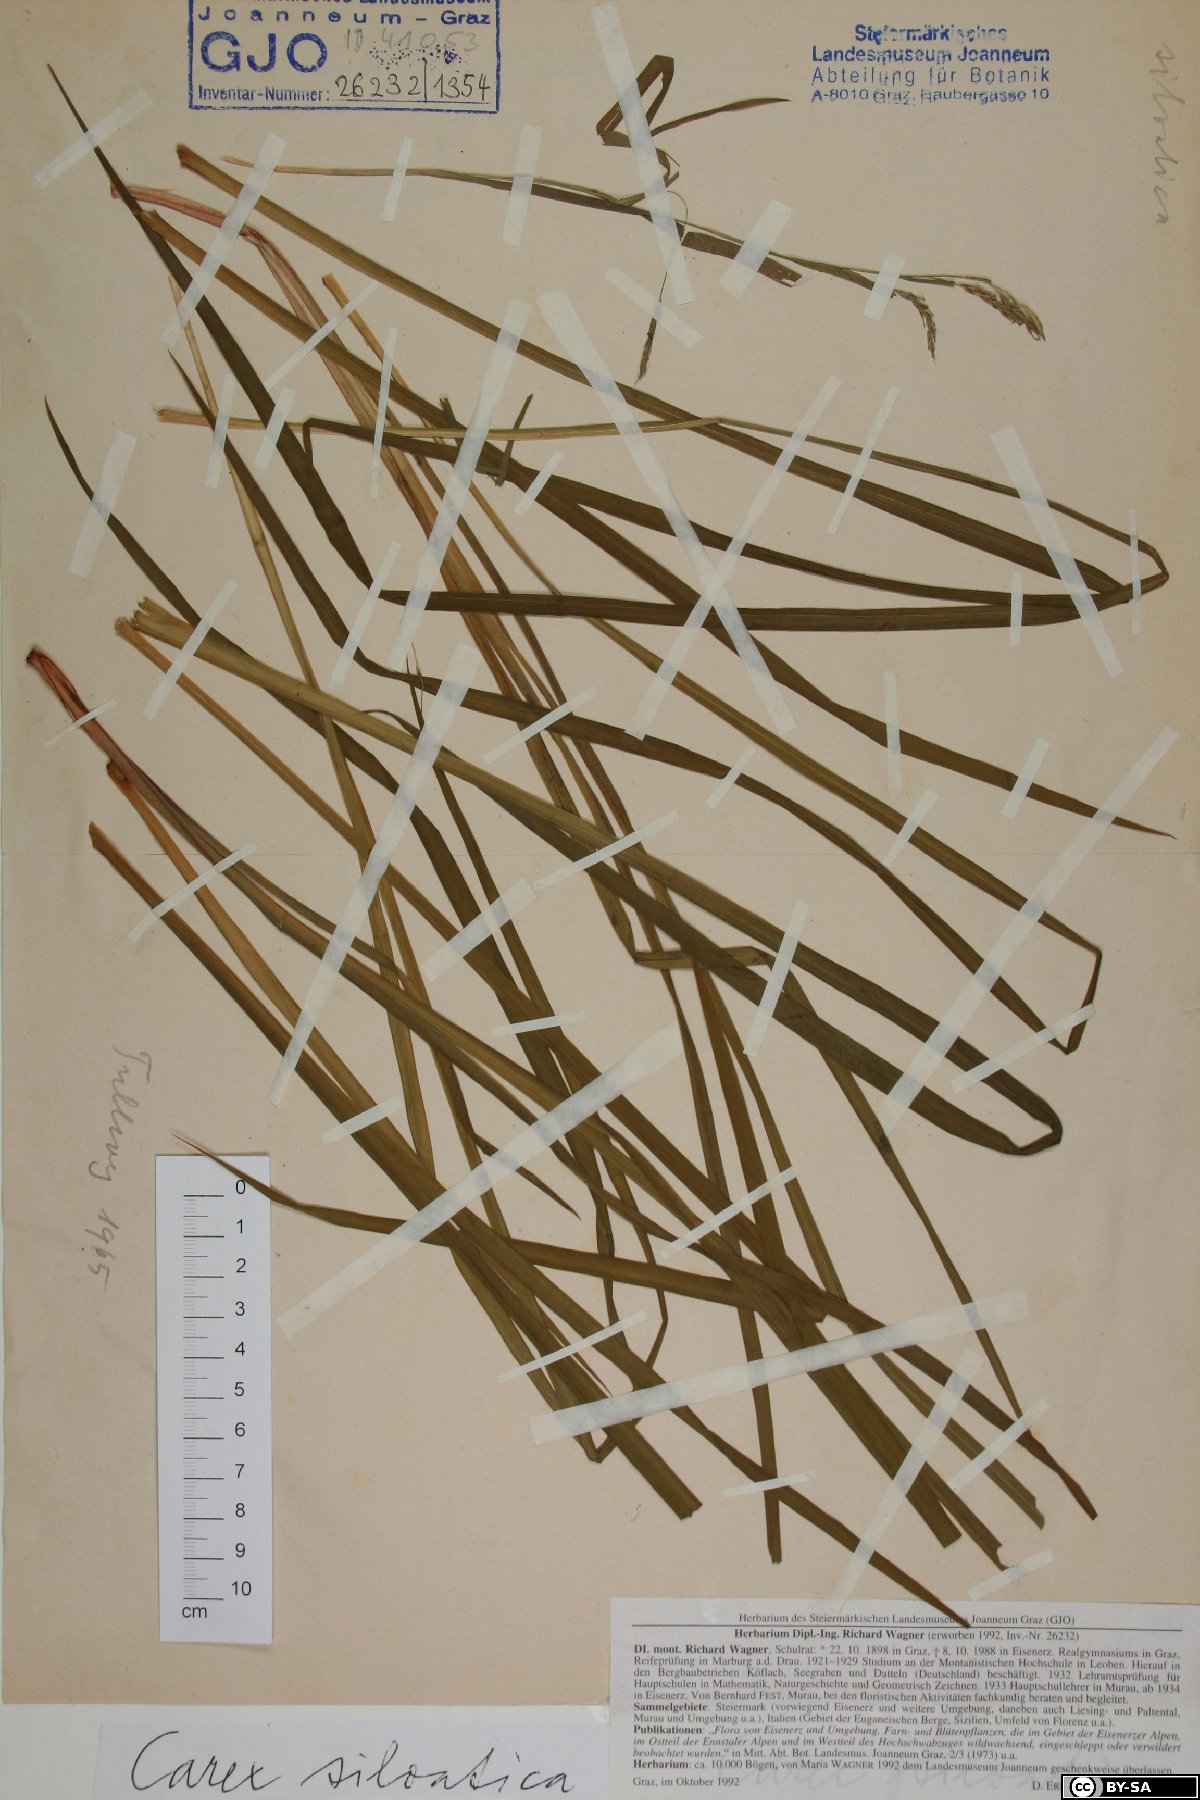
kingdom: Plantae
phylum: Tracheophyta
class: Liliopsida
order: Poales
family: Cyperaceae
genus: Carex
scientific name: Carex sylvatica
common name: Wood-sedge
